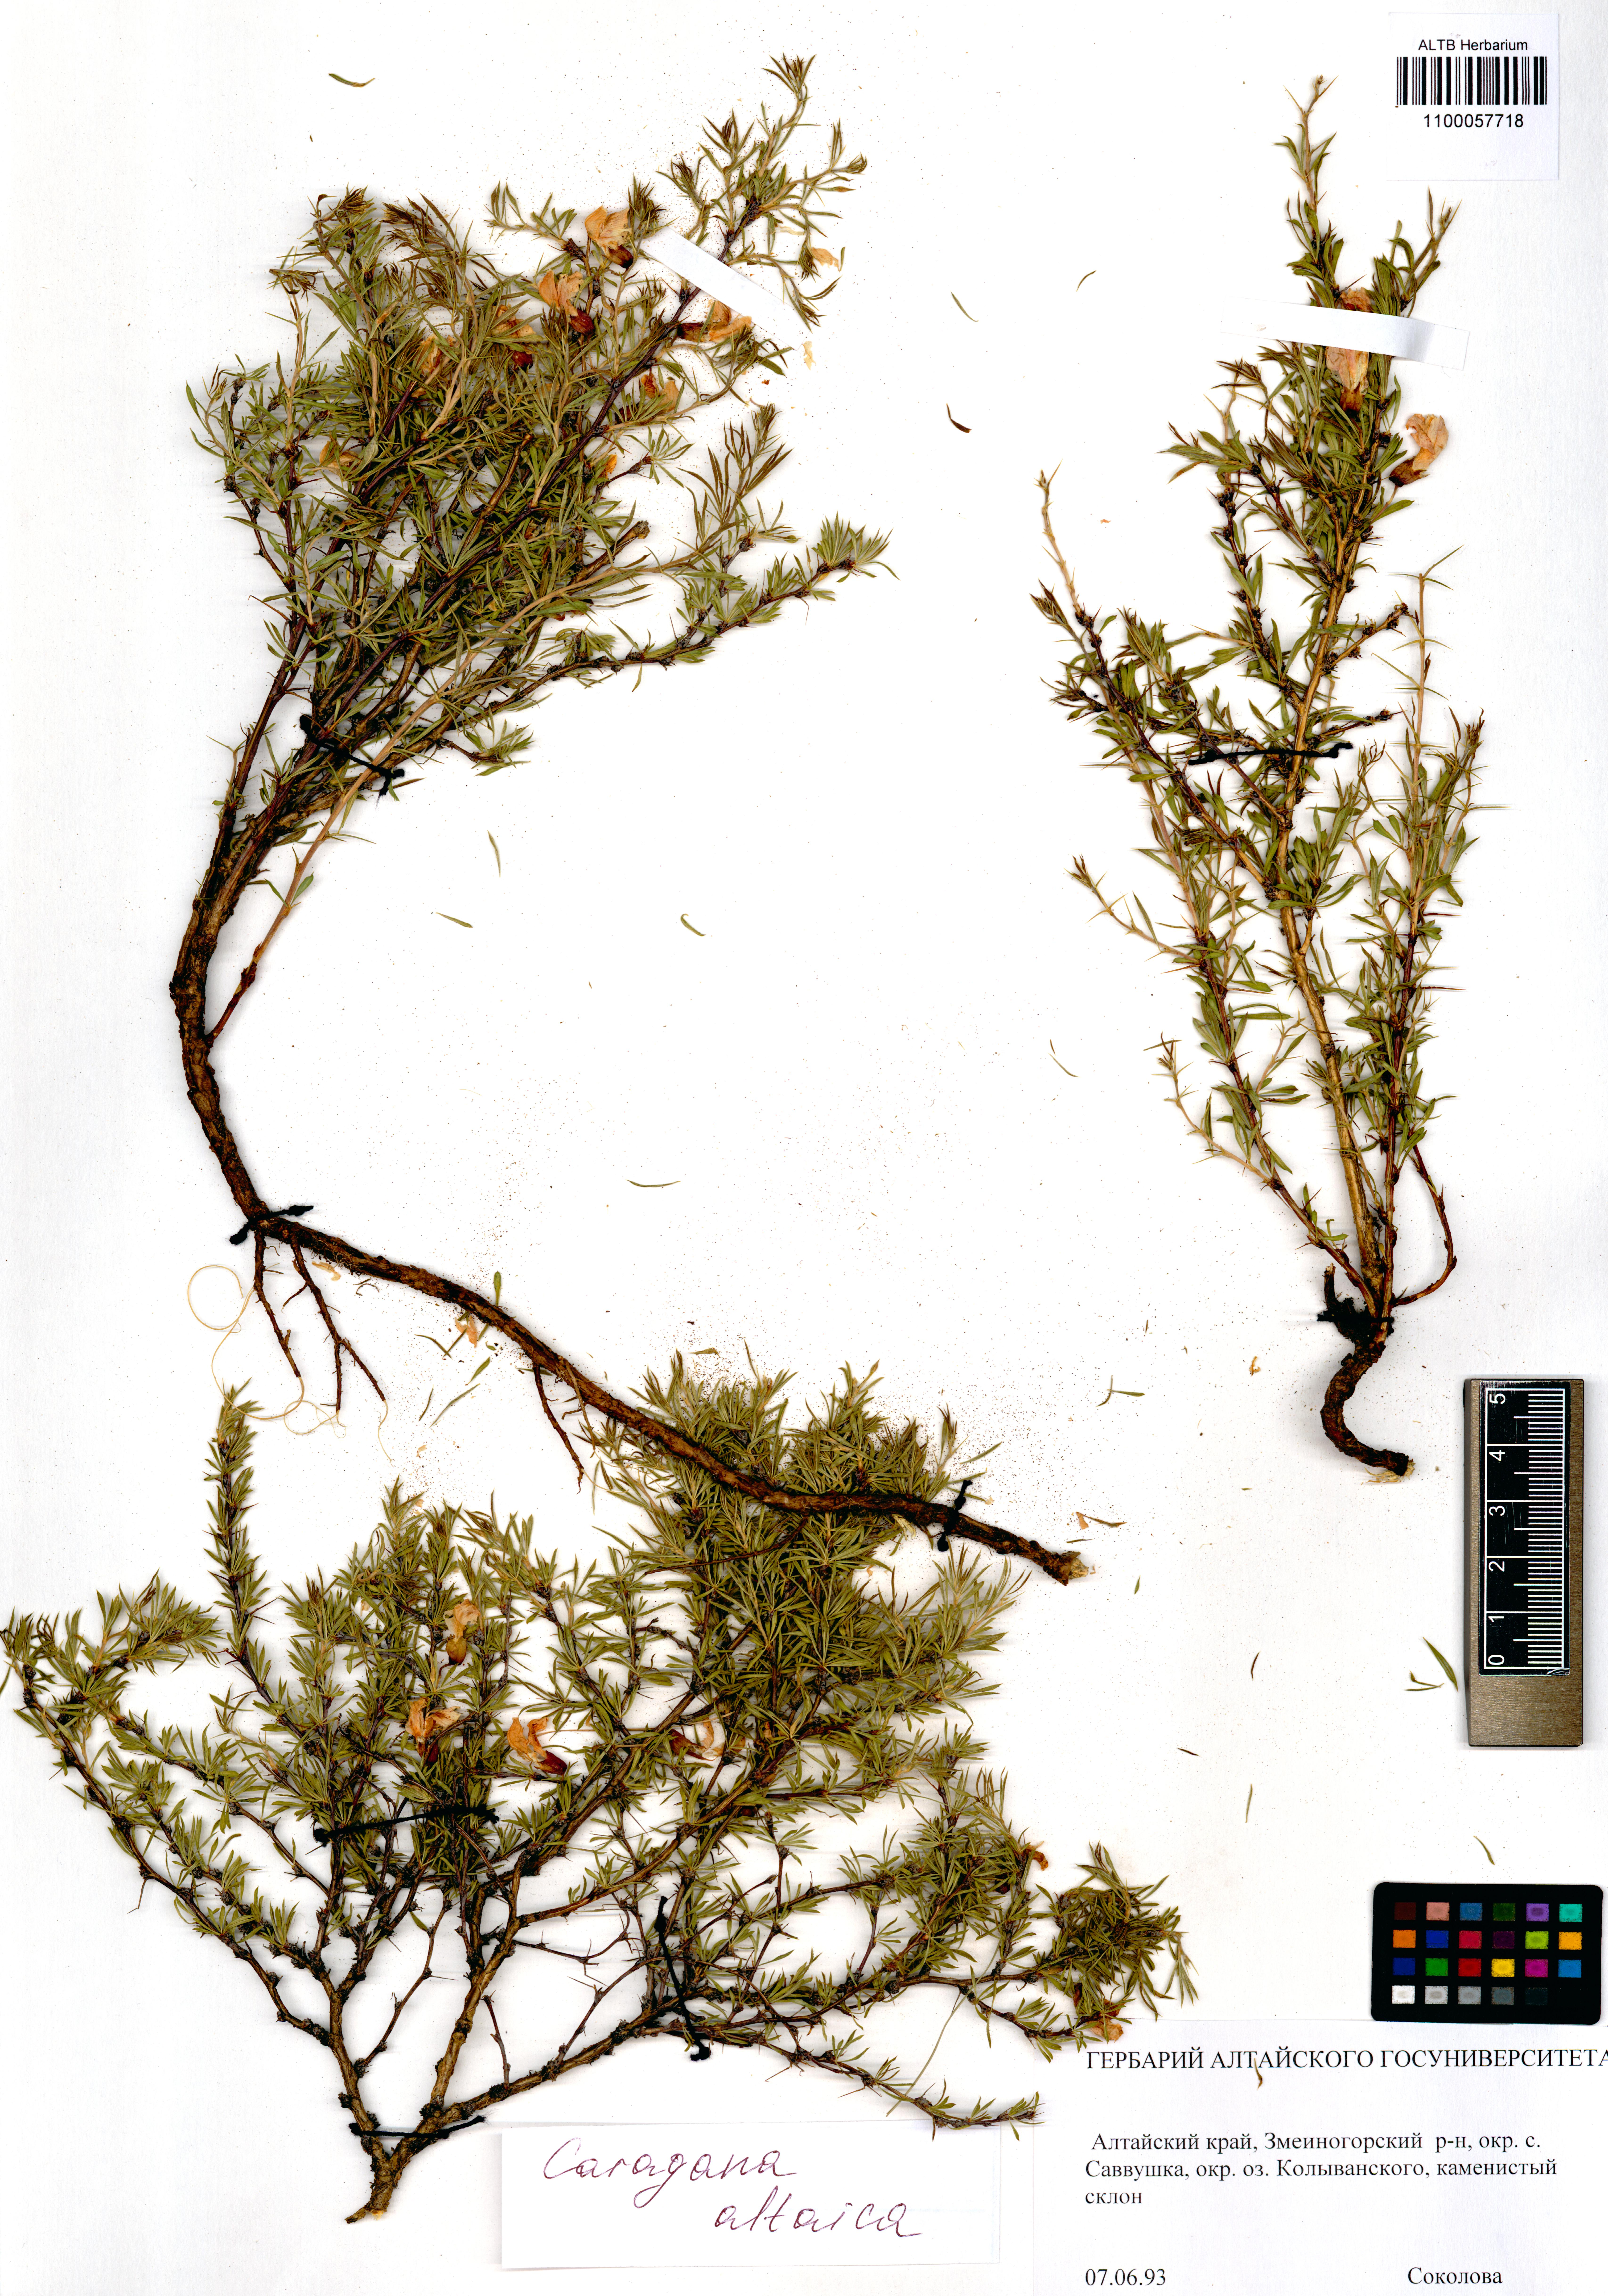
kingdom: Plantae
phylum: Tracheophyta
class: Magnoliopsida
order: Fabales
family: Fabaceae
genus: Caragana
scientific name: Caragana pygmaea
